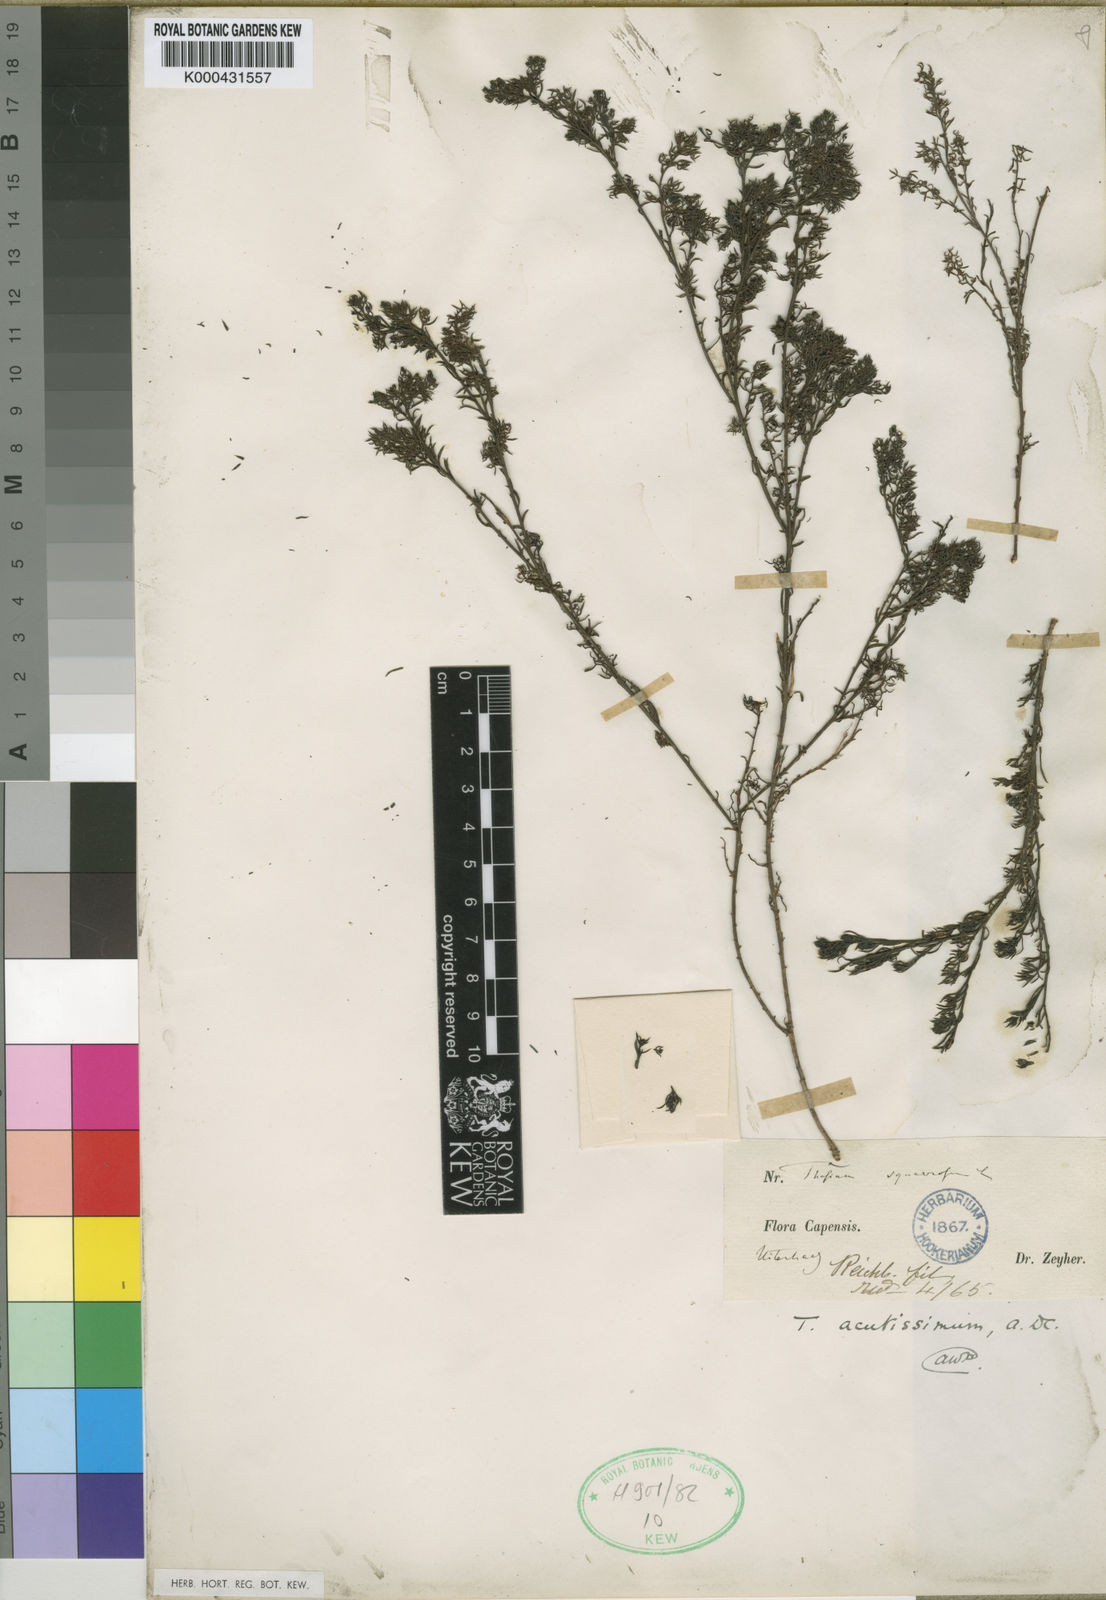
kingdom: Plantae
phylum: Tracheophyta
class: Magnoliopsida
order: Santalales
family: Thesiaceae
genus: Thesium
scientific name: Thesium acutissimum
